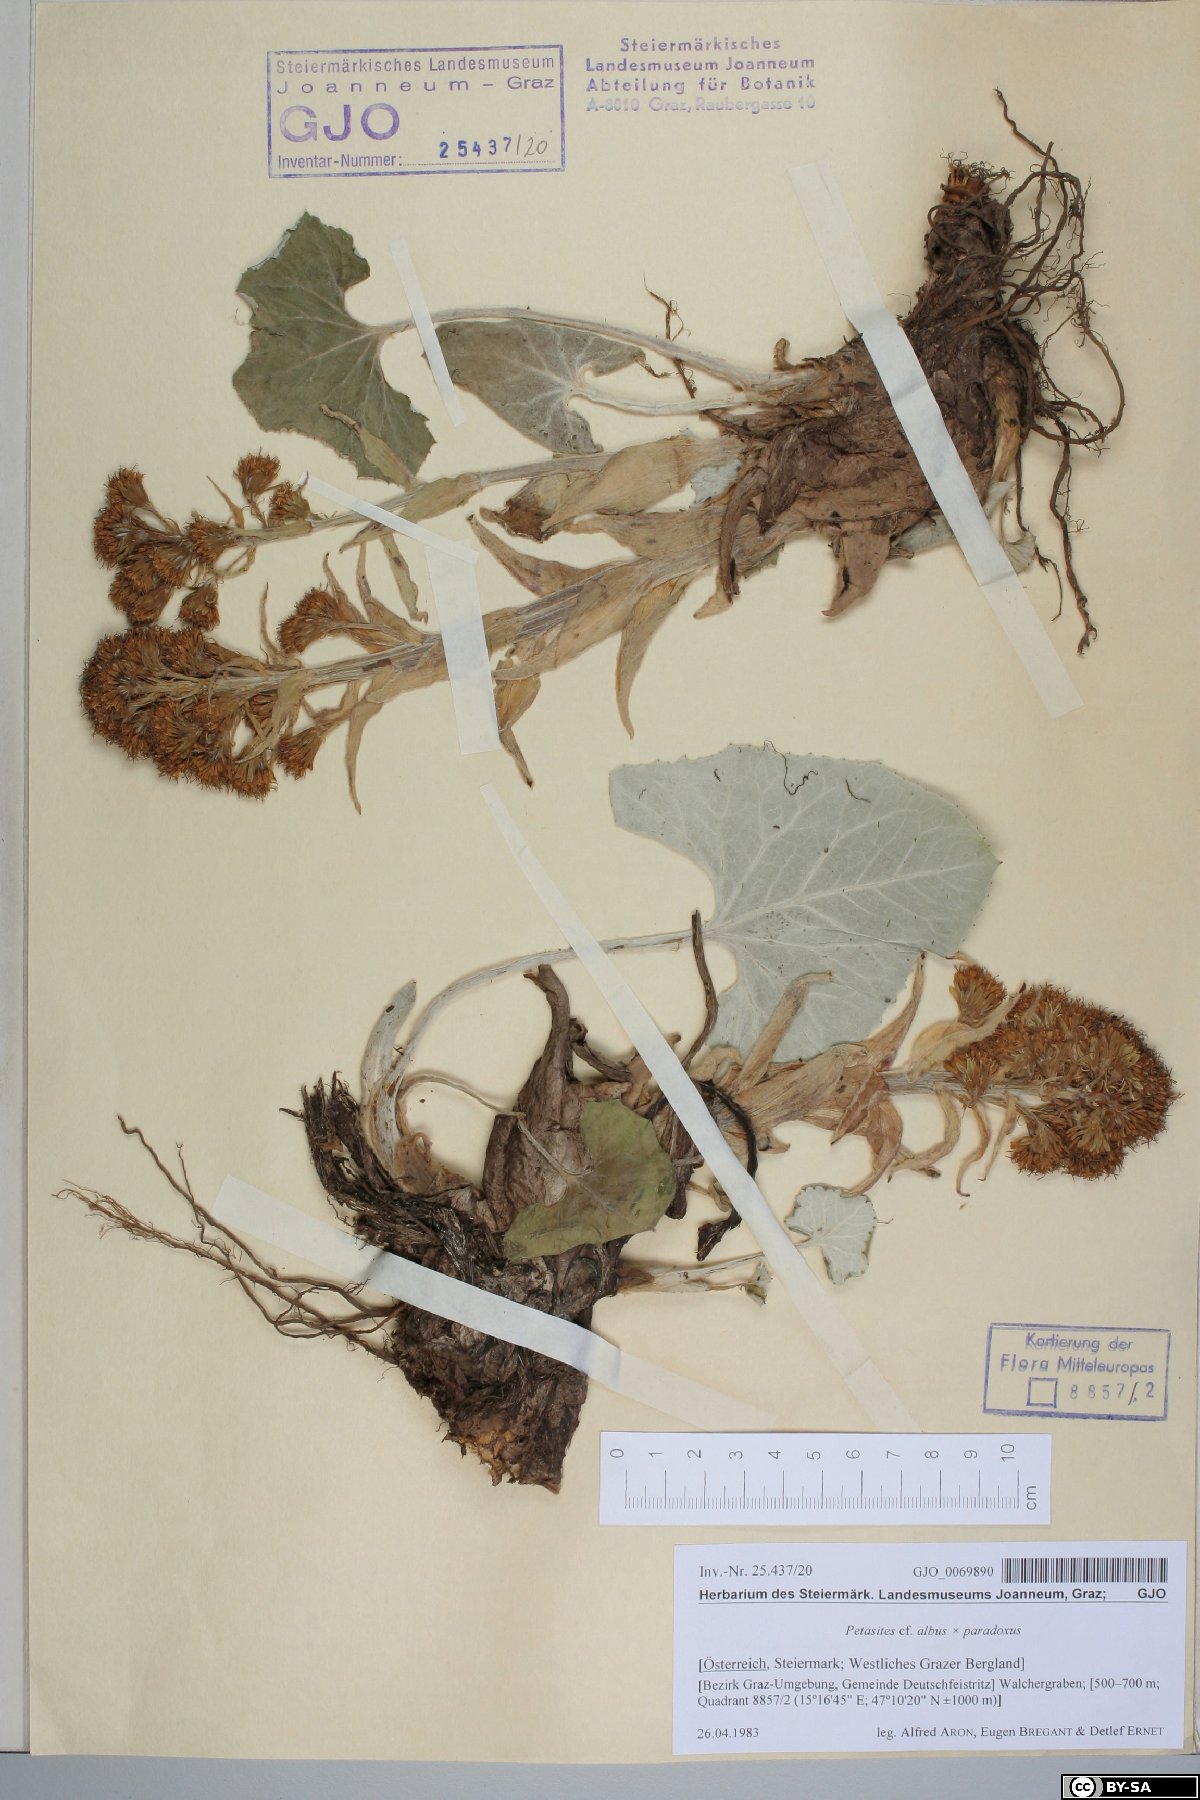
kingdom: Plantae
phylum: Tracheophyta
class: Magnoliopsida
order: Asterales
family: Asteraceae
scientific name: Asteraceae
